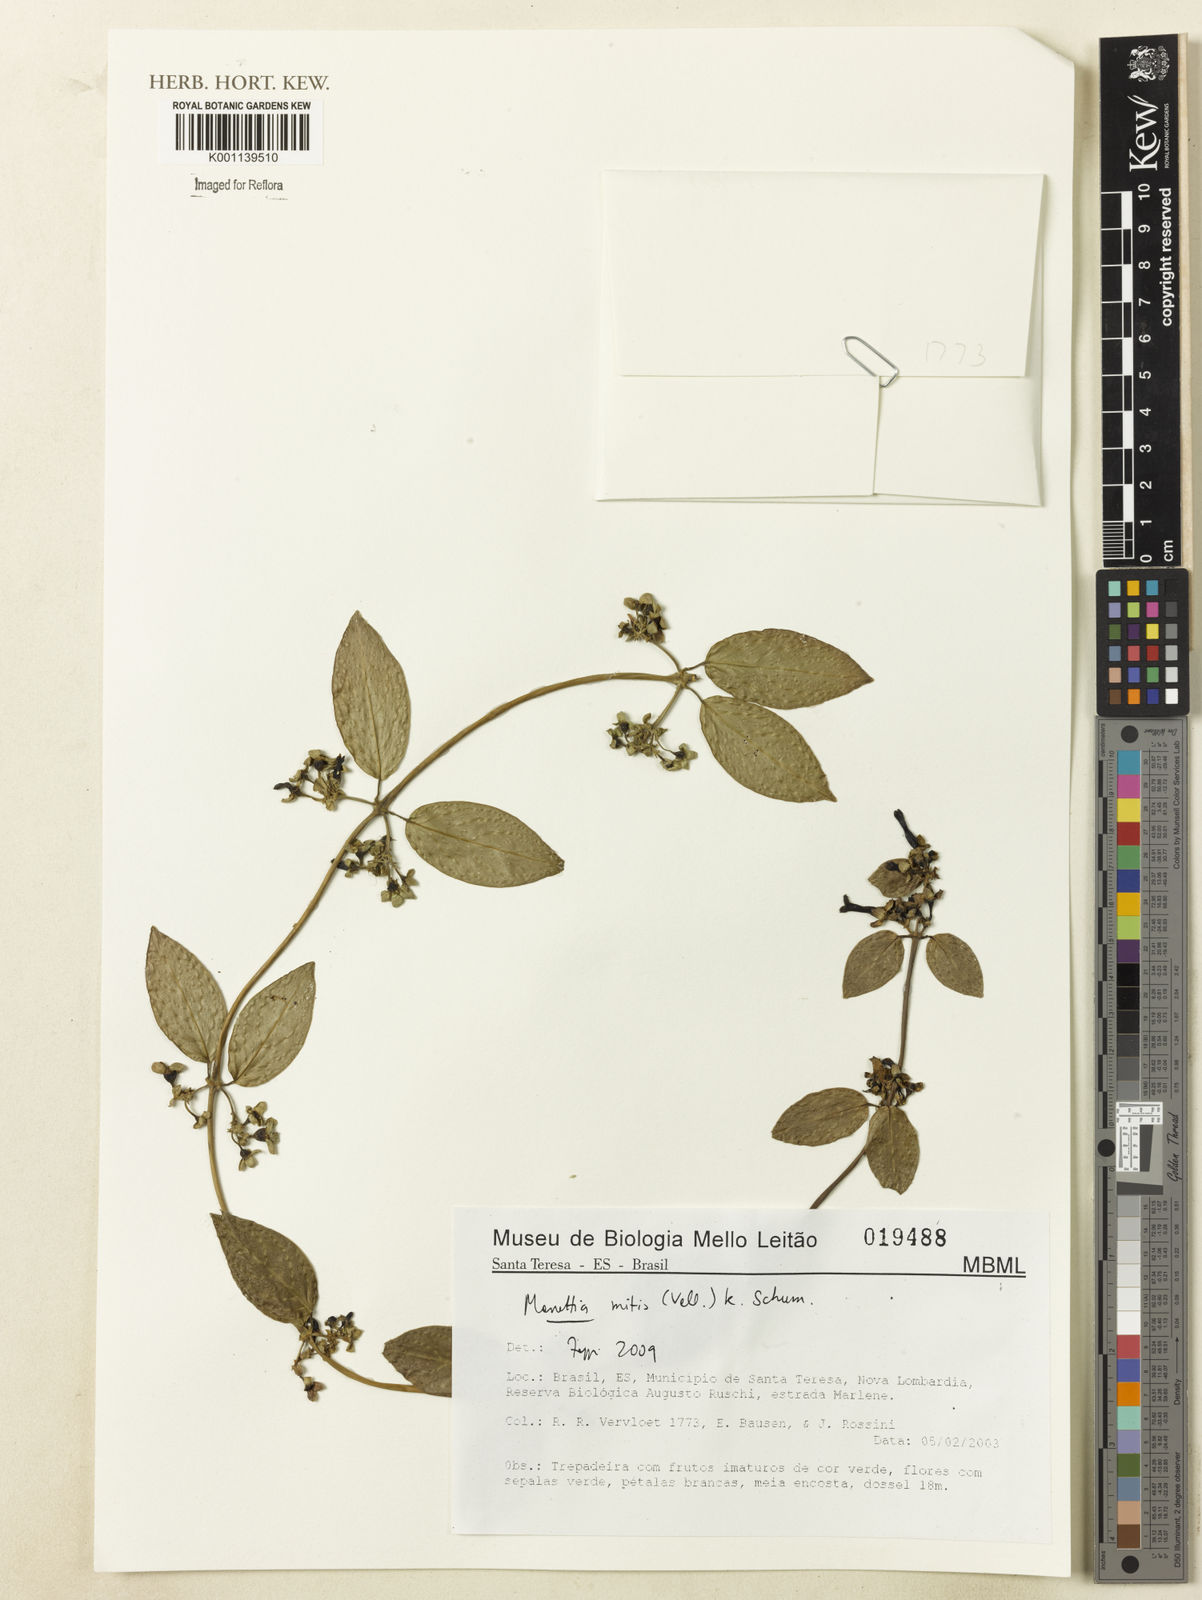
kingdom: Plantae
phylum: Tracheophyta
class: Magnoliopsida
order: Gentianales
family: Rubiaceae
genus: Manettia
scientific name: Manettia mitis
